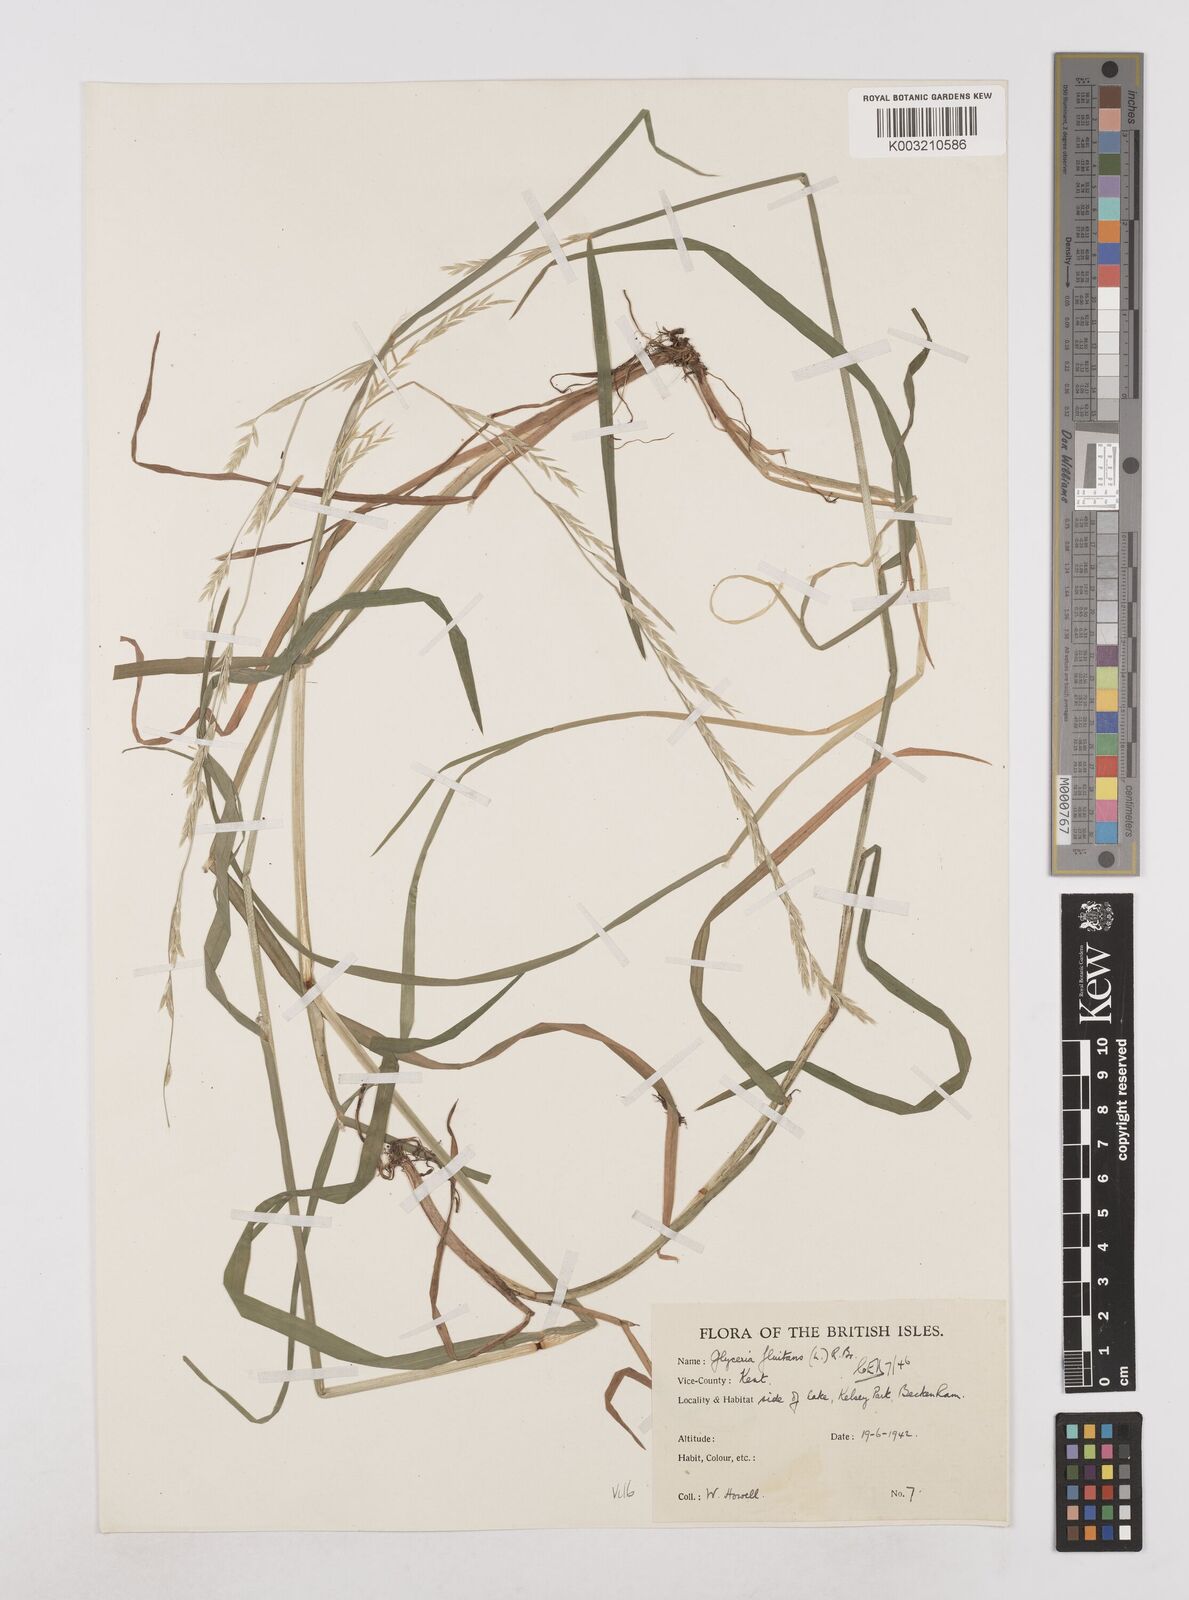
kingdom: Plantae
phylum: Tracheophyta
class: Liliopsida
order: Poales
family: Poaceae
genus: Glyceria
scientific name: Glyceria fluitans
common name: Floating sweet-grass
